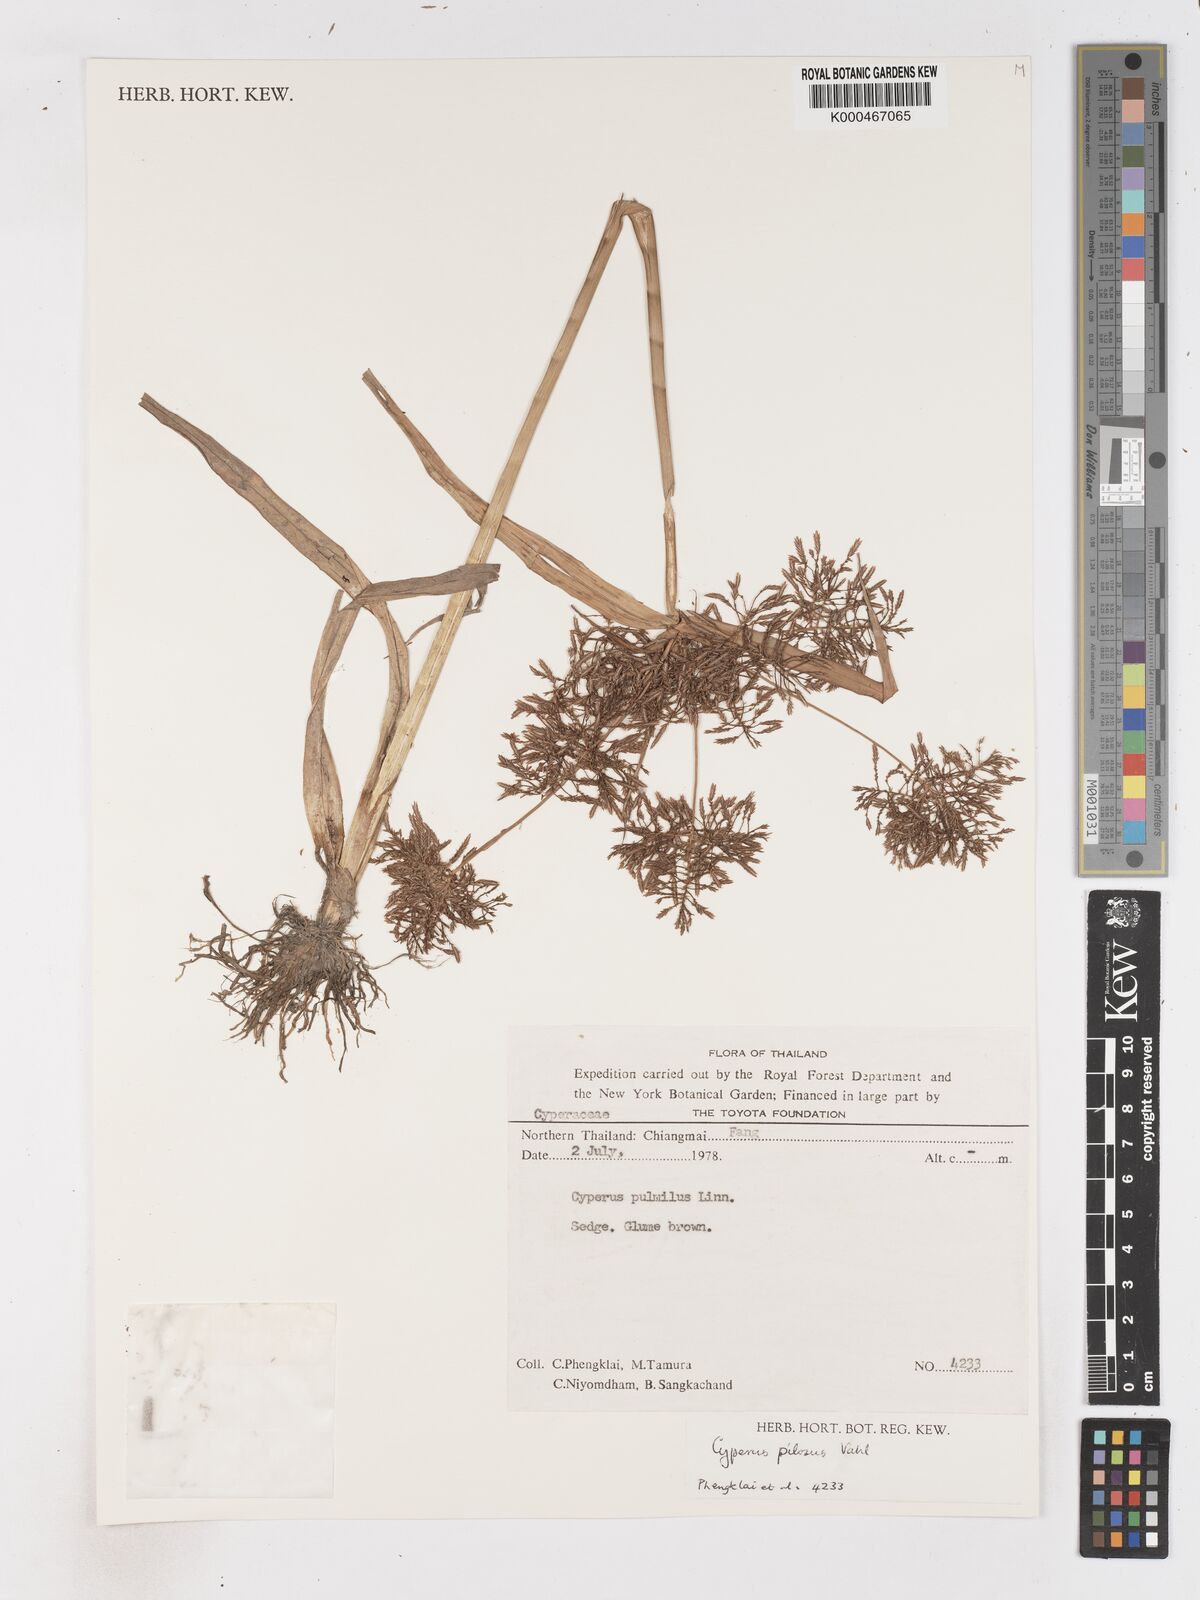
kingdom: Plantae
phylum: Tracheophyta
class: Liliopsida
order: Poales
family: Cyperaceae
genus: Cyperus
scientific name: Cyperus pilosus
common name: Fuzzy flatsedge
